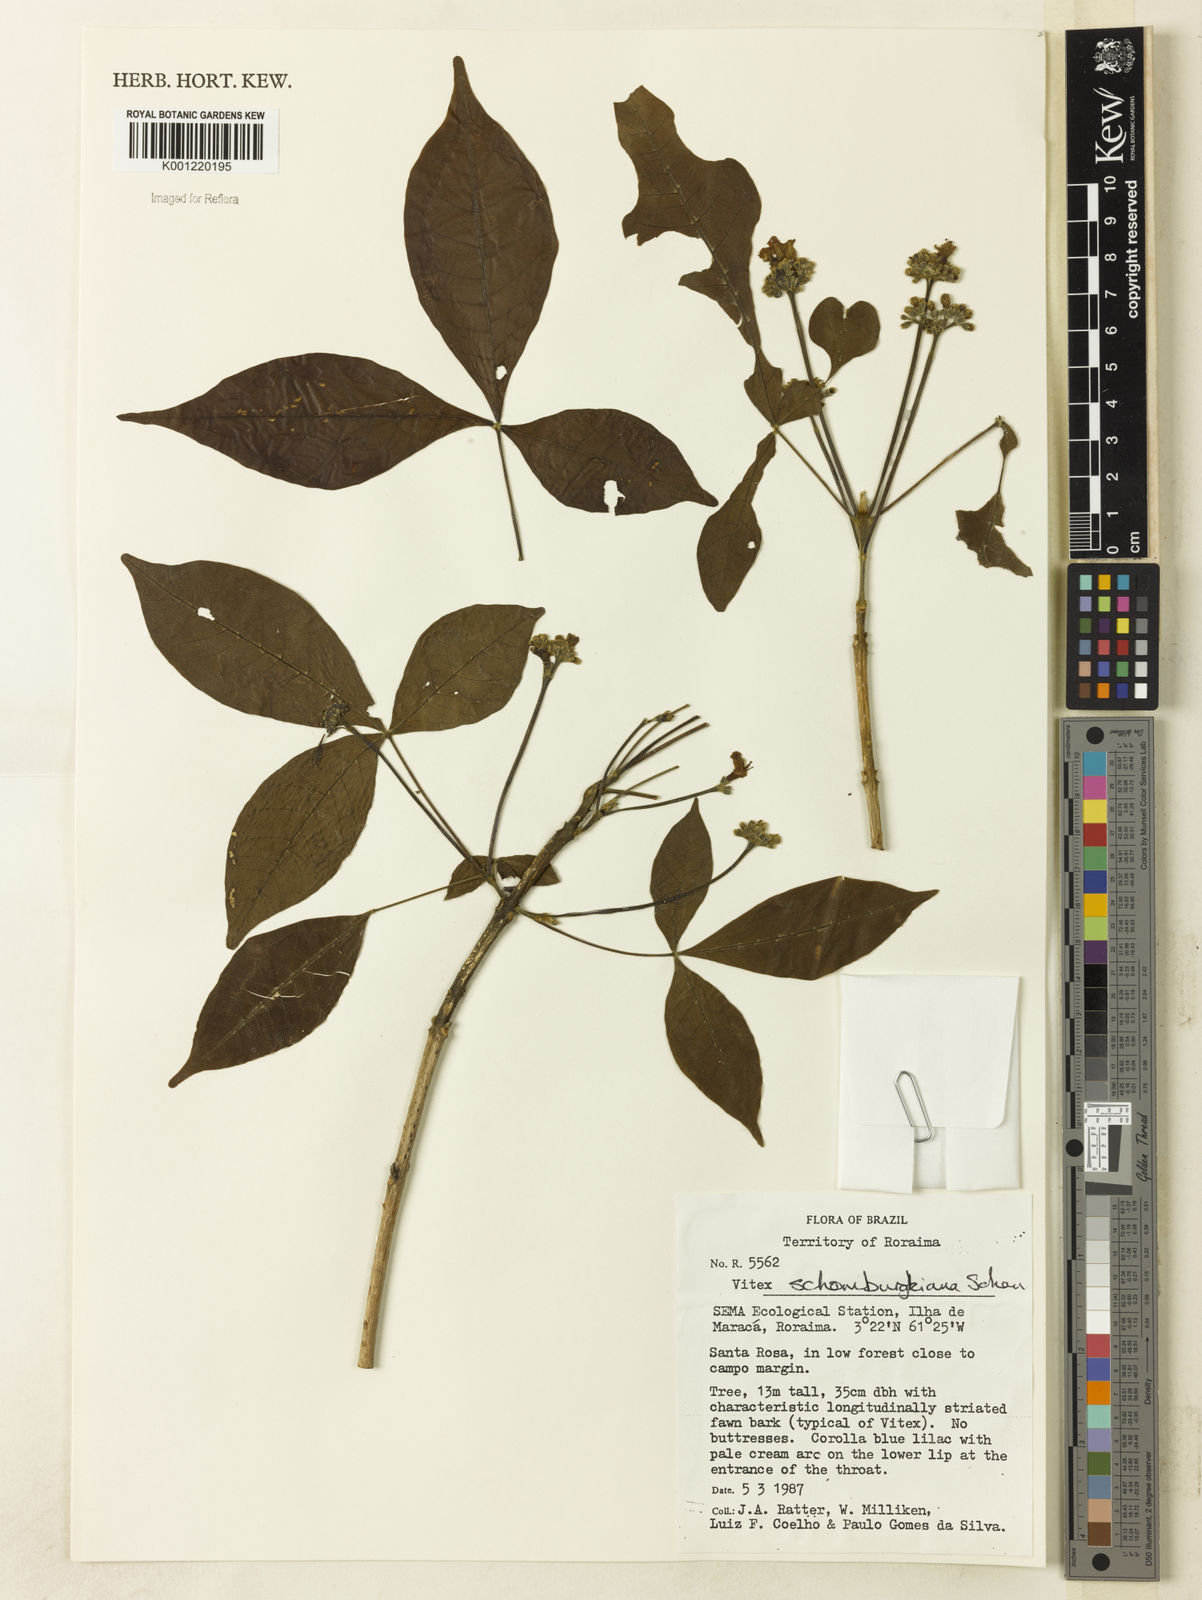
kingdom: Plantae
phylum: Tracheophyta
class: Magnoliopsida
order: Lamiales
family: Lamiaceae
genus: Vitex
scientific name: Vitex schomburgkiana
